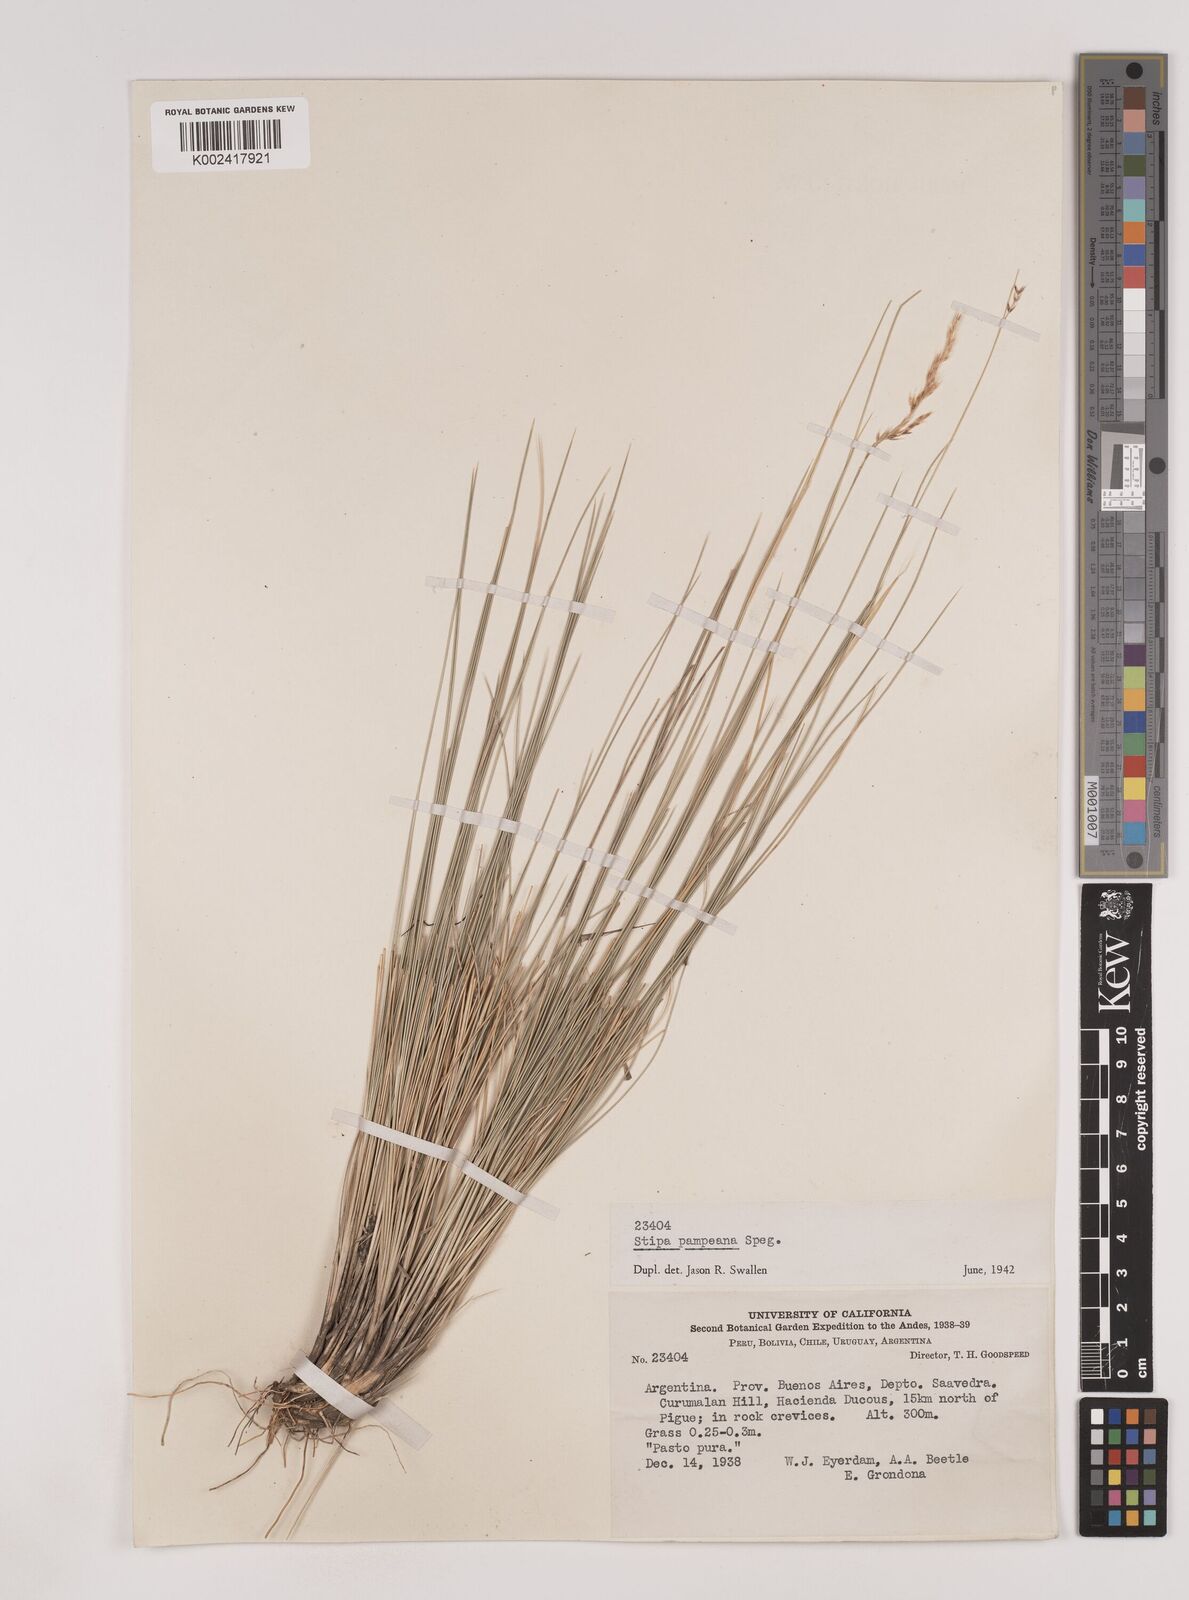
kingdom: Plantae
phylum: Tracheophyta
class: Liliopsida
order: Poales
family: Poaceae
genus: Nassella
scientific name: Nassella pampeana
